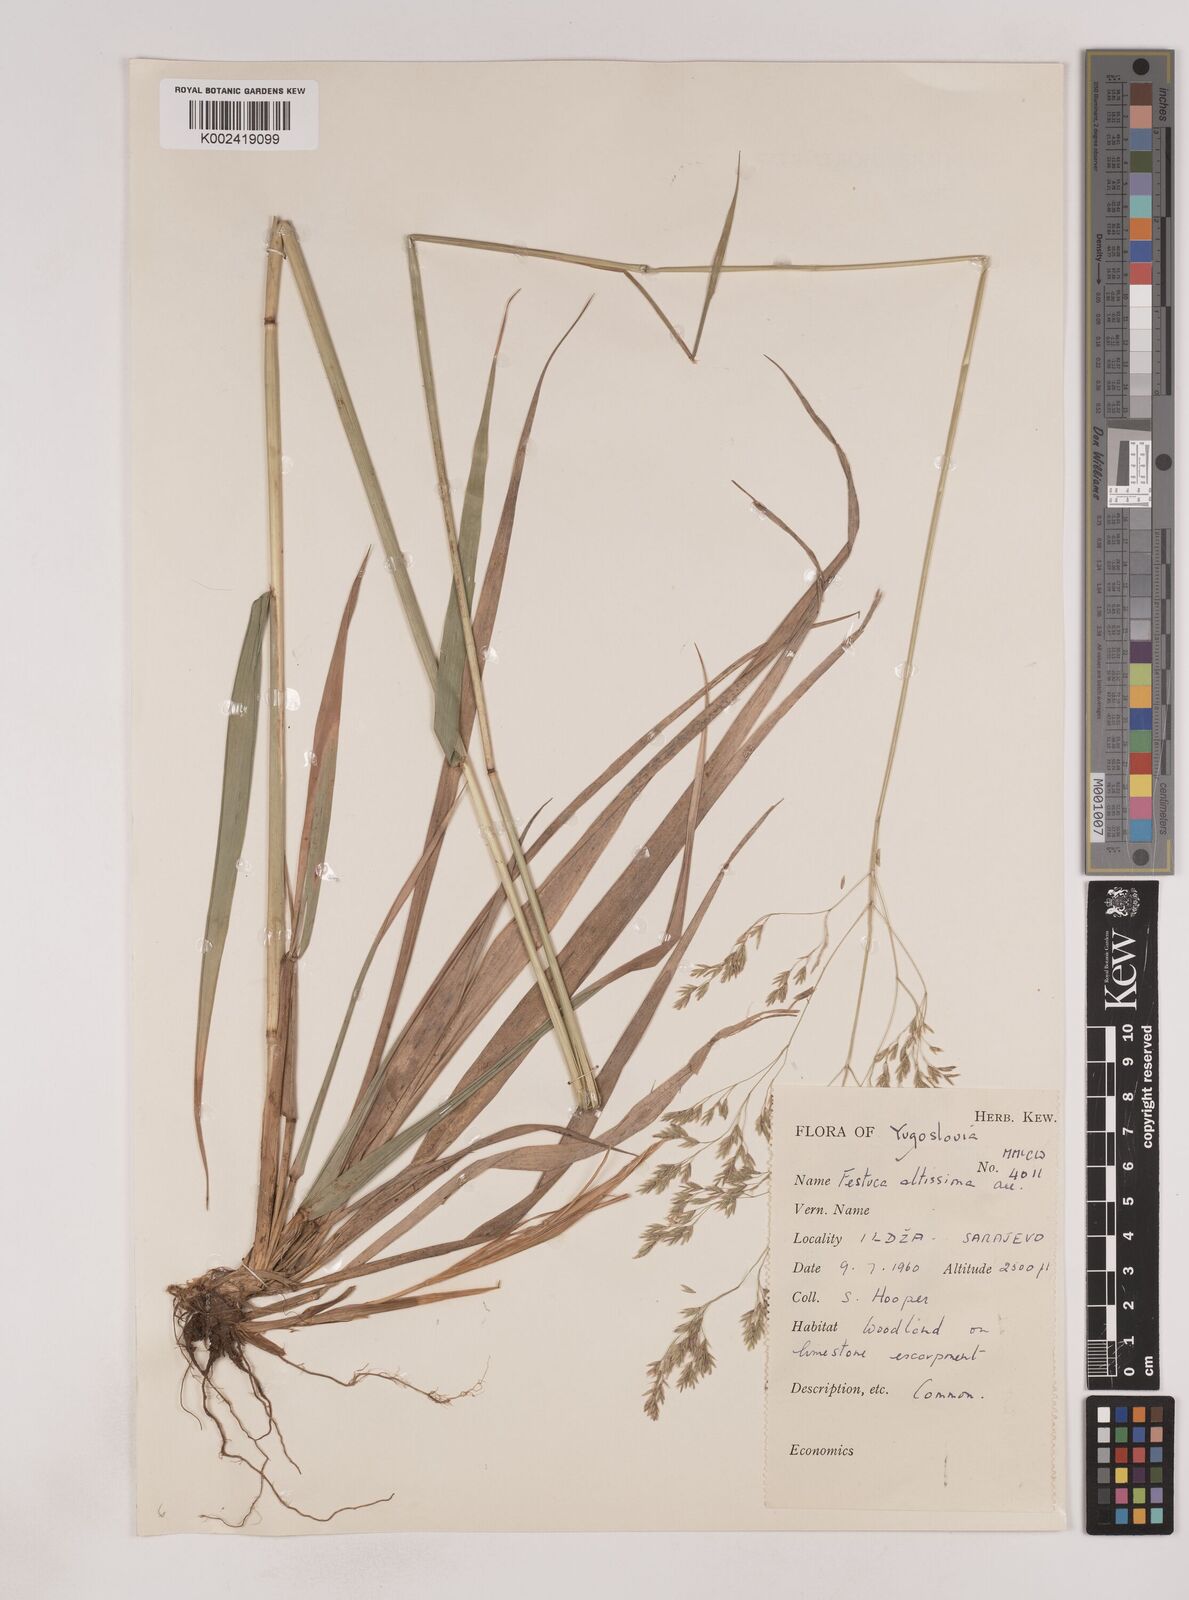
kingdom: Plantae
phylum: Tracheophyta
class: Liliopsida
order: Poales
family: Poaceae
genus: Festuca
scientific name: Festuca drymeja
